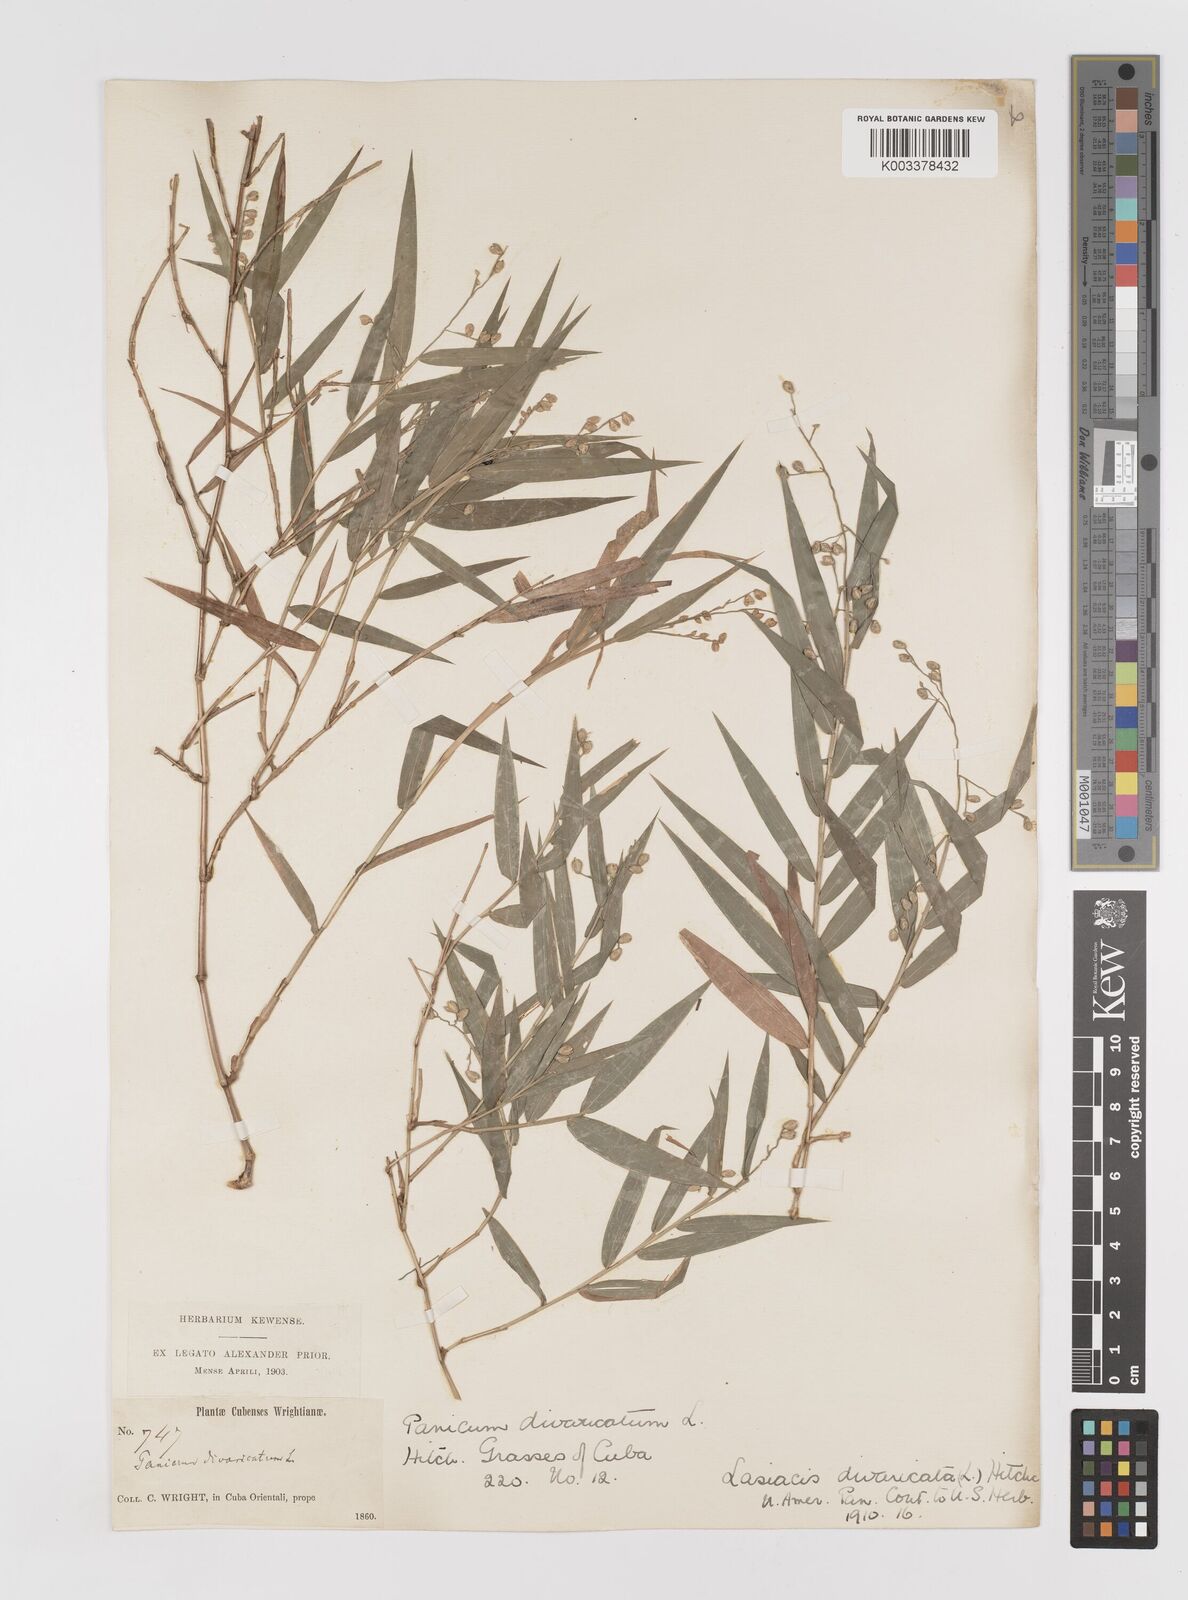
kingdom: Plantae
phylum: Tracheophyta
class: Liliopsida
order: Poales
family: Poaceae
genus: Lasiacis
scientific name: Lasiacis divaricata
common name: Smallcane
